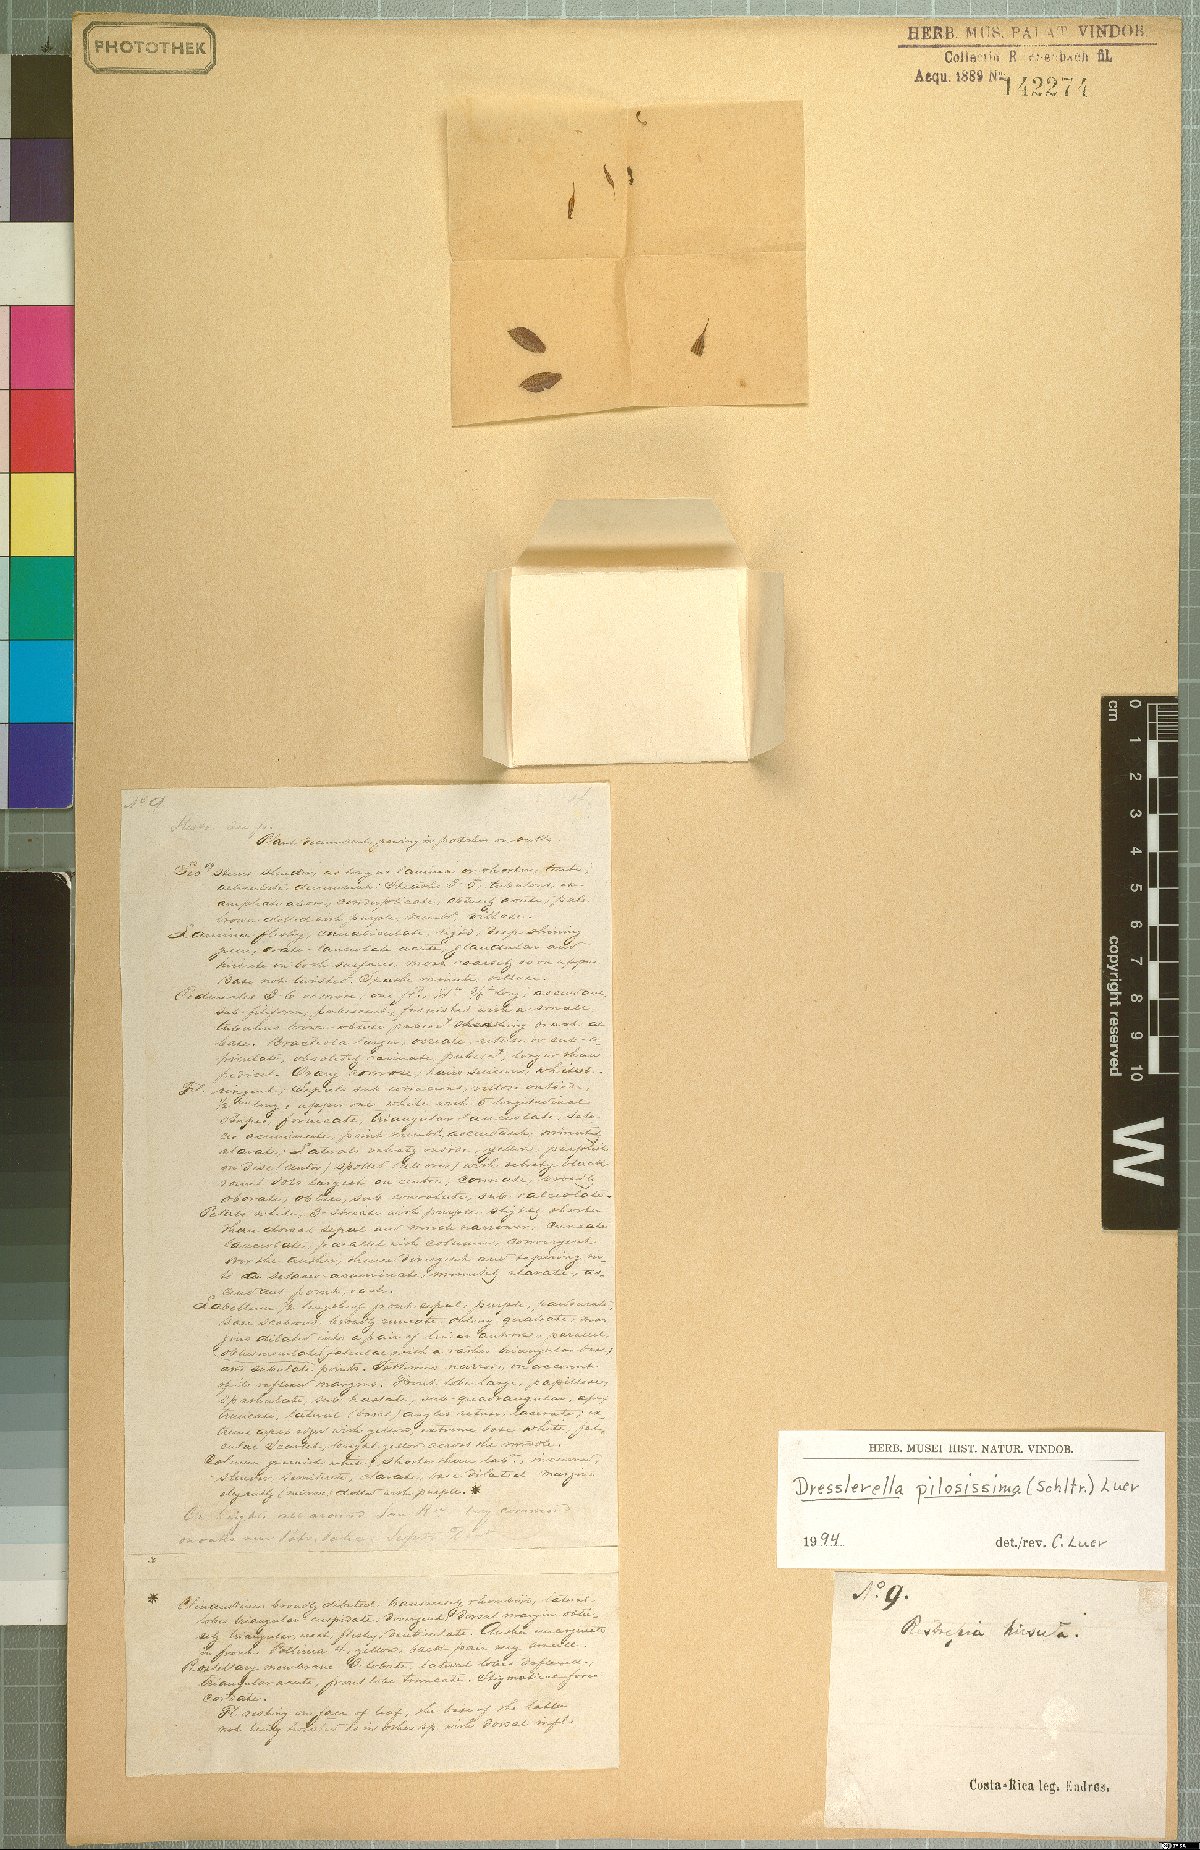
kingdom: Plantae
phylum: Tracheophyta
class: Liliopsida
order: Asparagales
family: Orchidaceae
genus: Dresslerella
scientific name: Dresslerella pilosissima
